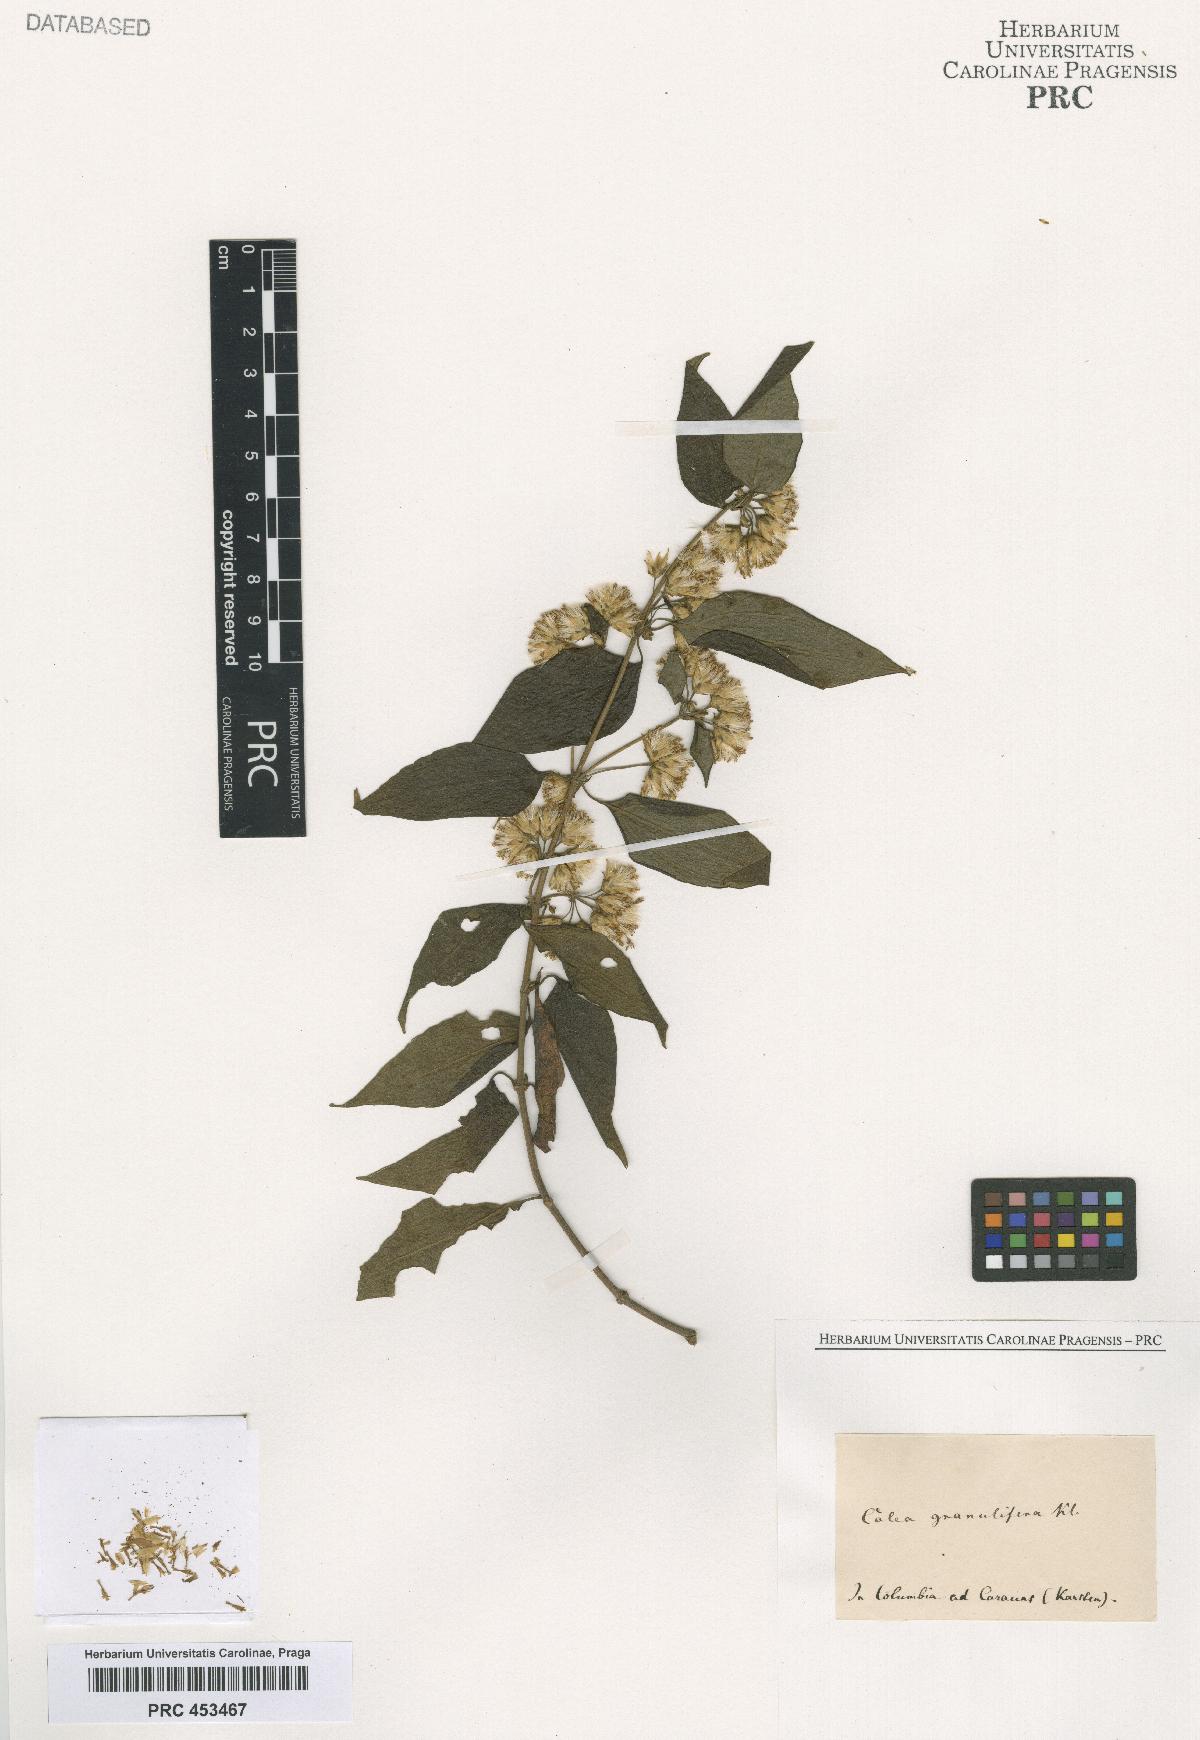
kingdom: Plantae
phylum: Tracheophyta
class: Magnoliopsida
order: Asterales
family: Asteraceae
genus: Calea
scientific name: Calea
